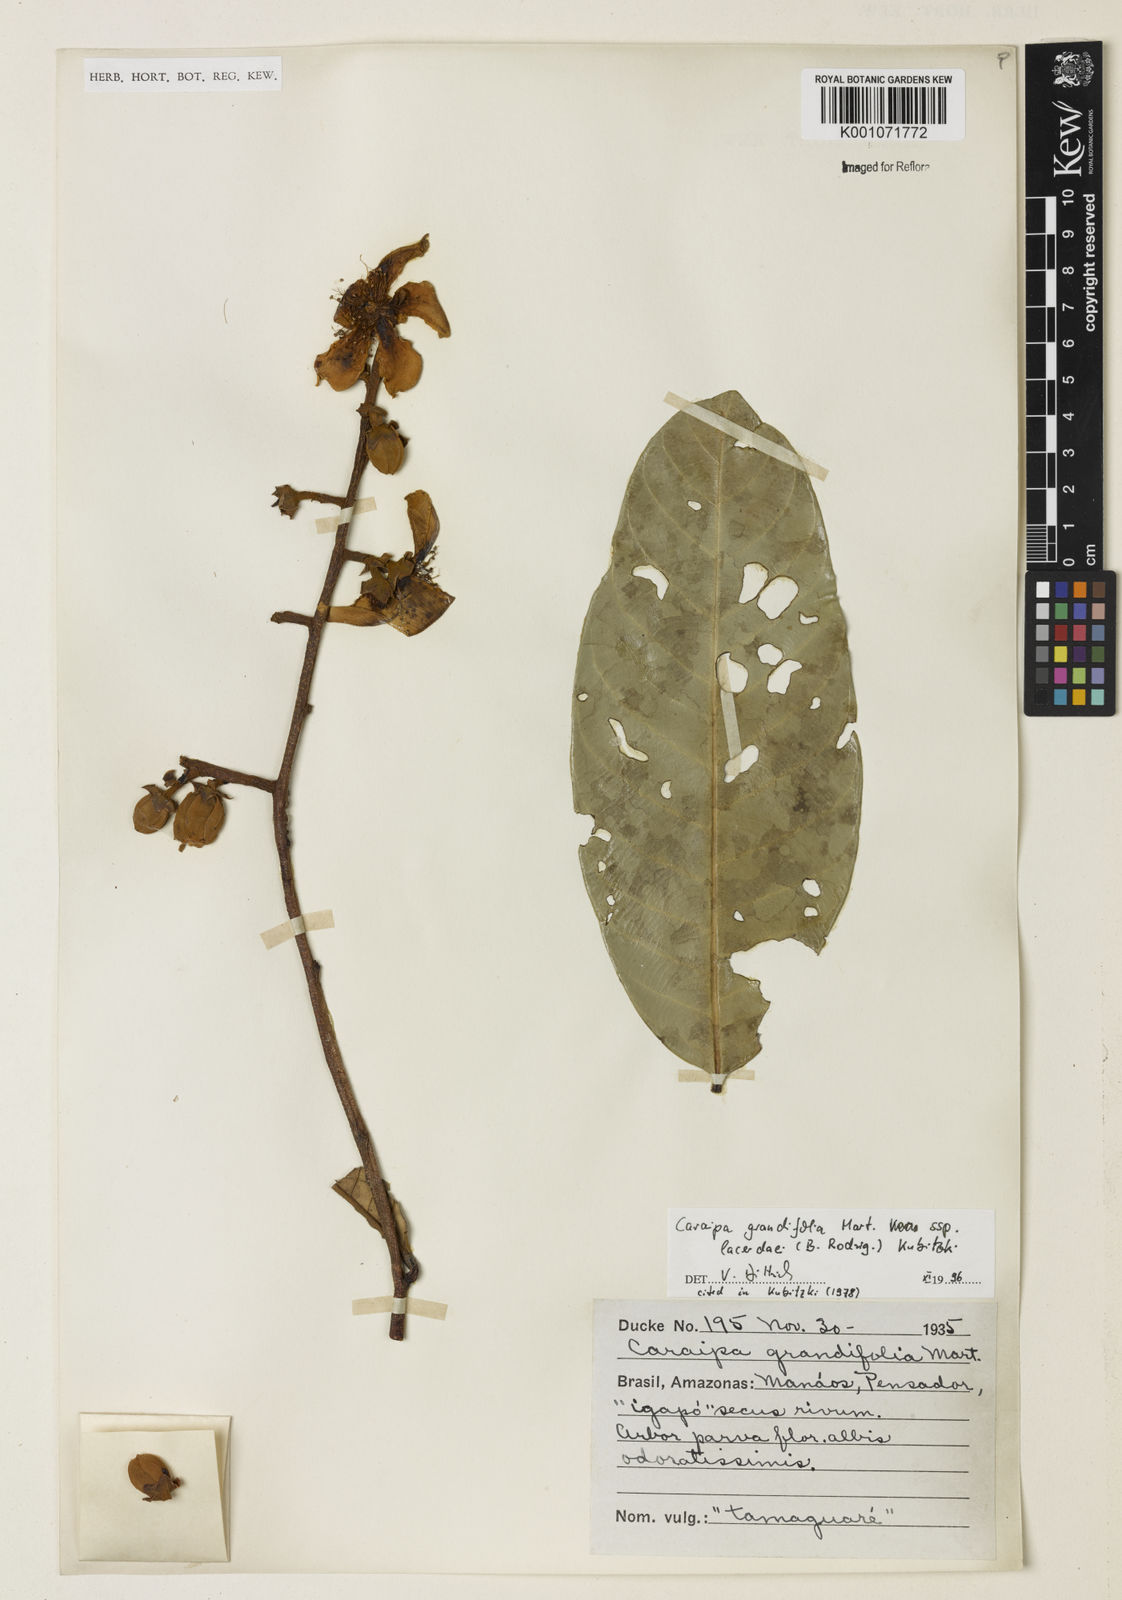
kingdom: Plantae
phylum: Tracheophyta
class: Magnoliopsida
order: Malpighiales
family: Calophyllaceae
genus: Caraipa
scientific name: Caraipa grandifolia
